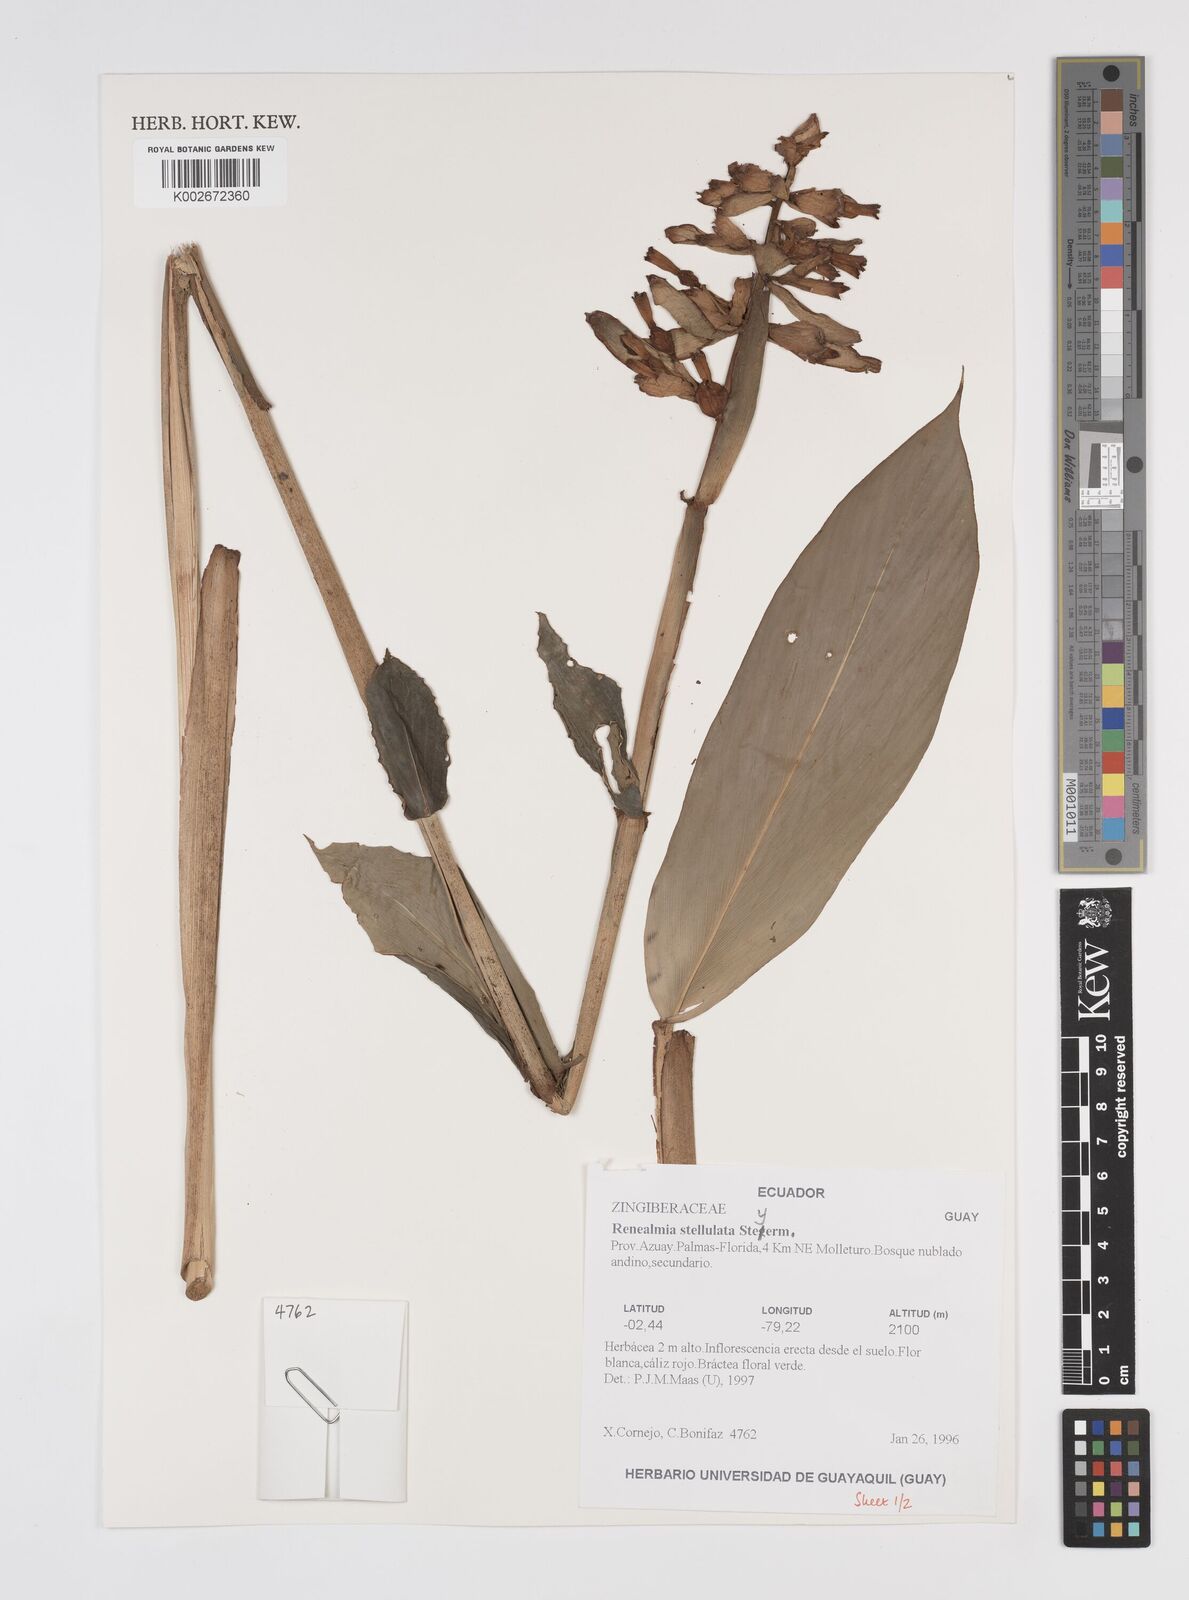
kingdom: Plantae
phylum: Tracheophyta
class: Liliopsida
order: Zingiberales
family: Zingiberaceae
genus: Renealmia
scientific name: Renealmia stellulata
